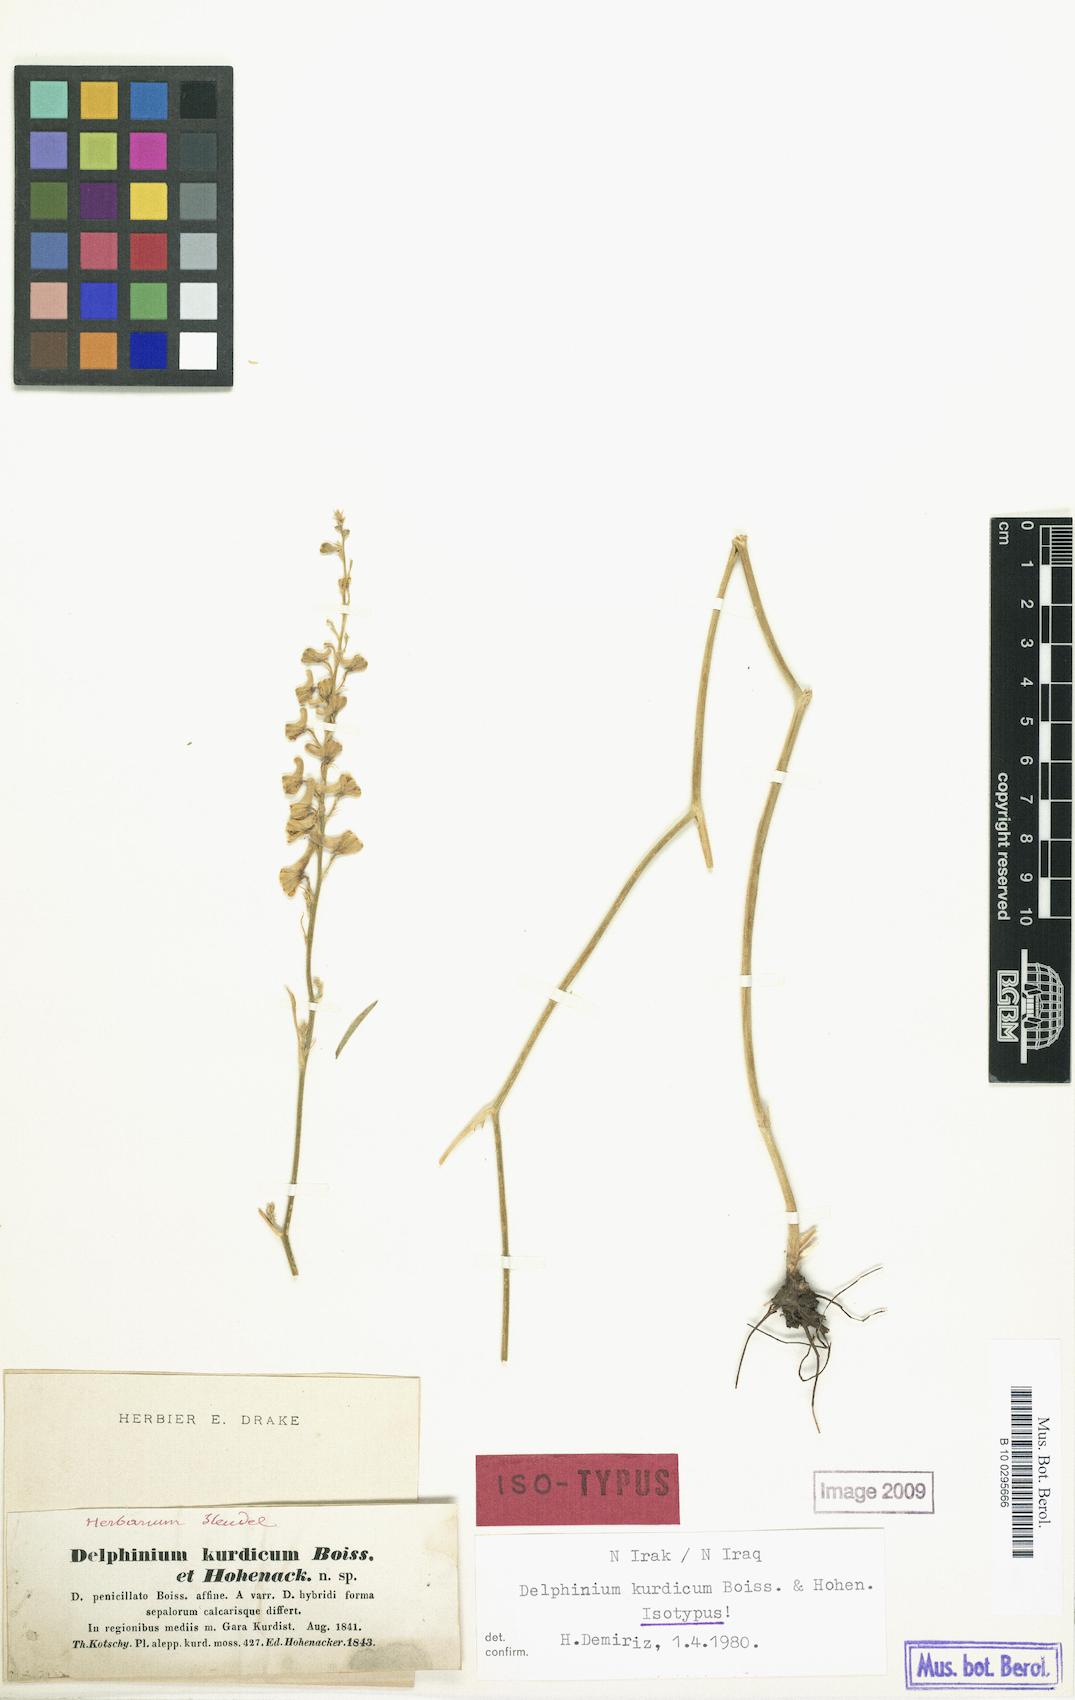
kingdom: Plantae
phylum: Tracheophyta
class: Magnoliopsida
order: Ranunculales
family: Ranunculaceae
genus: Delphinium
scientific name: Delphinium kurdicum
